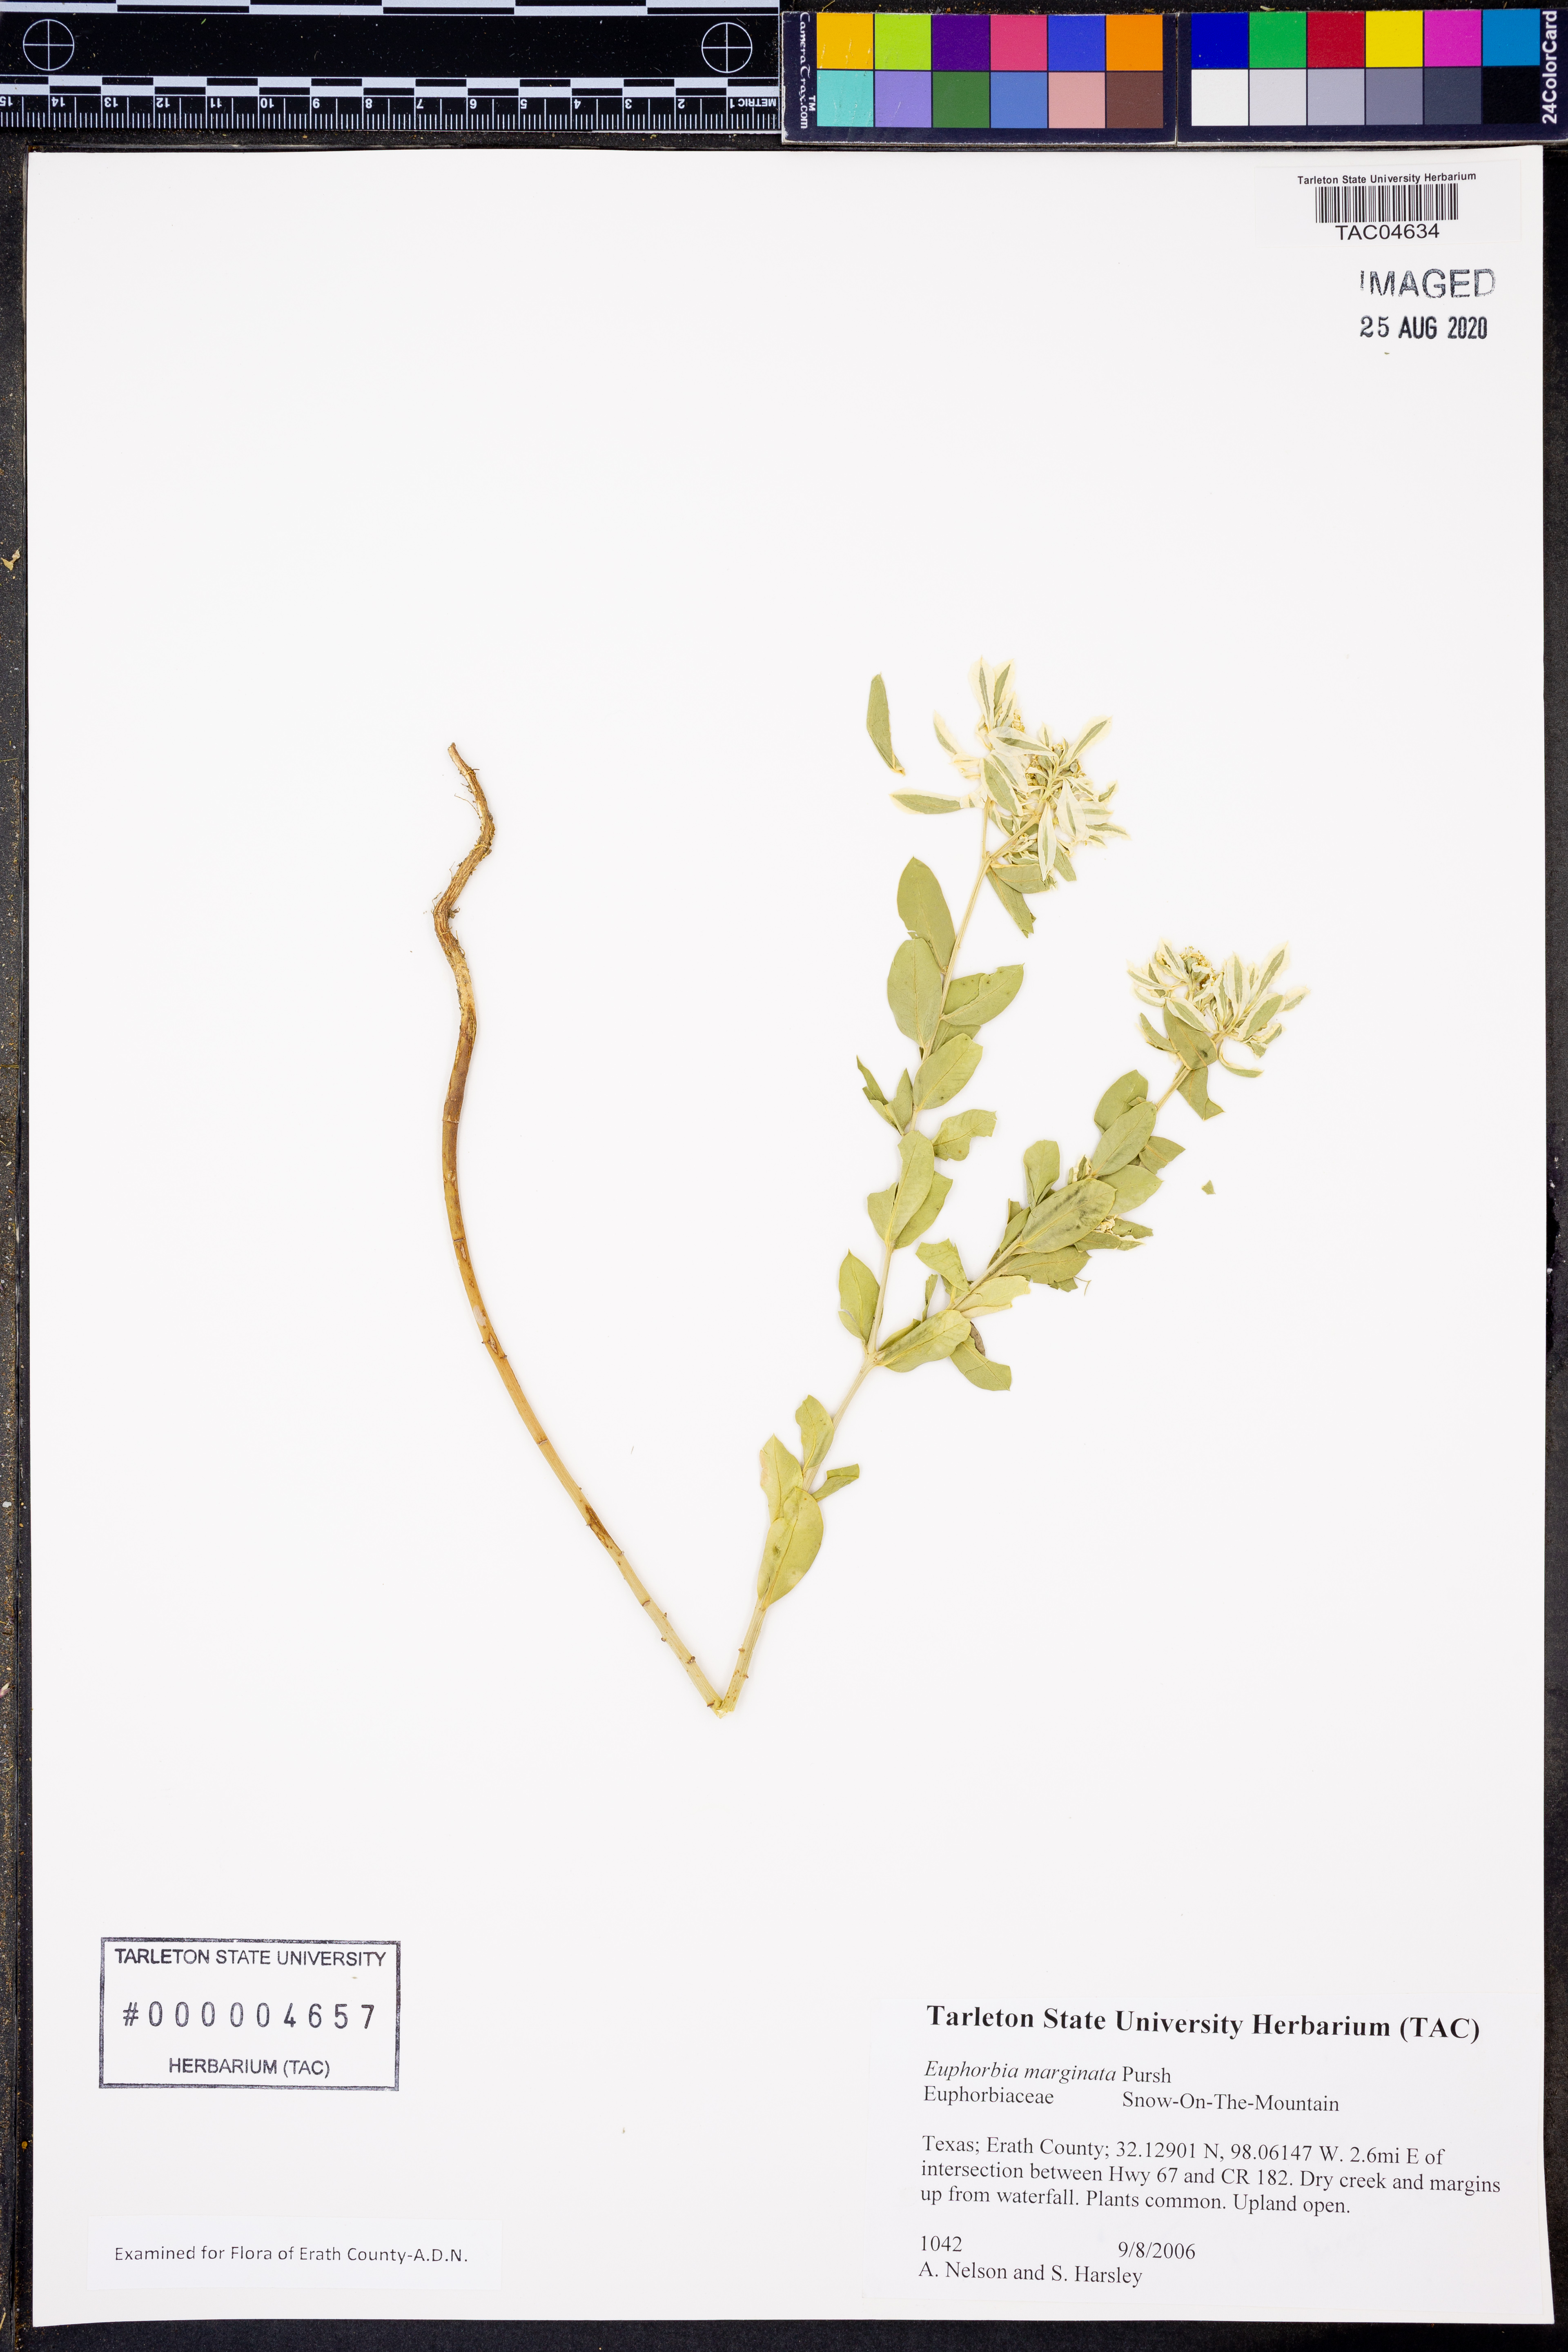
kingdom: Plantae
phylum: Tracheophyta
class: Magnoliopsida
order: Malpighiales
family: Euphorbiaceae
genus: Euphorbia
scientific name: Euphorbia marginata
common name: Ghostweed
